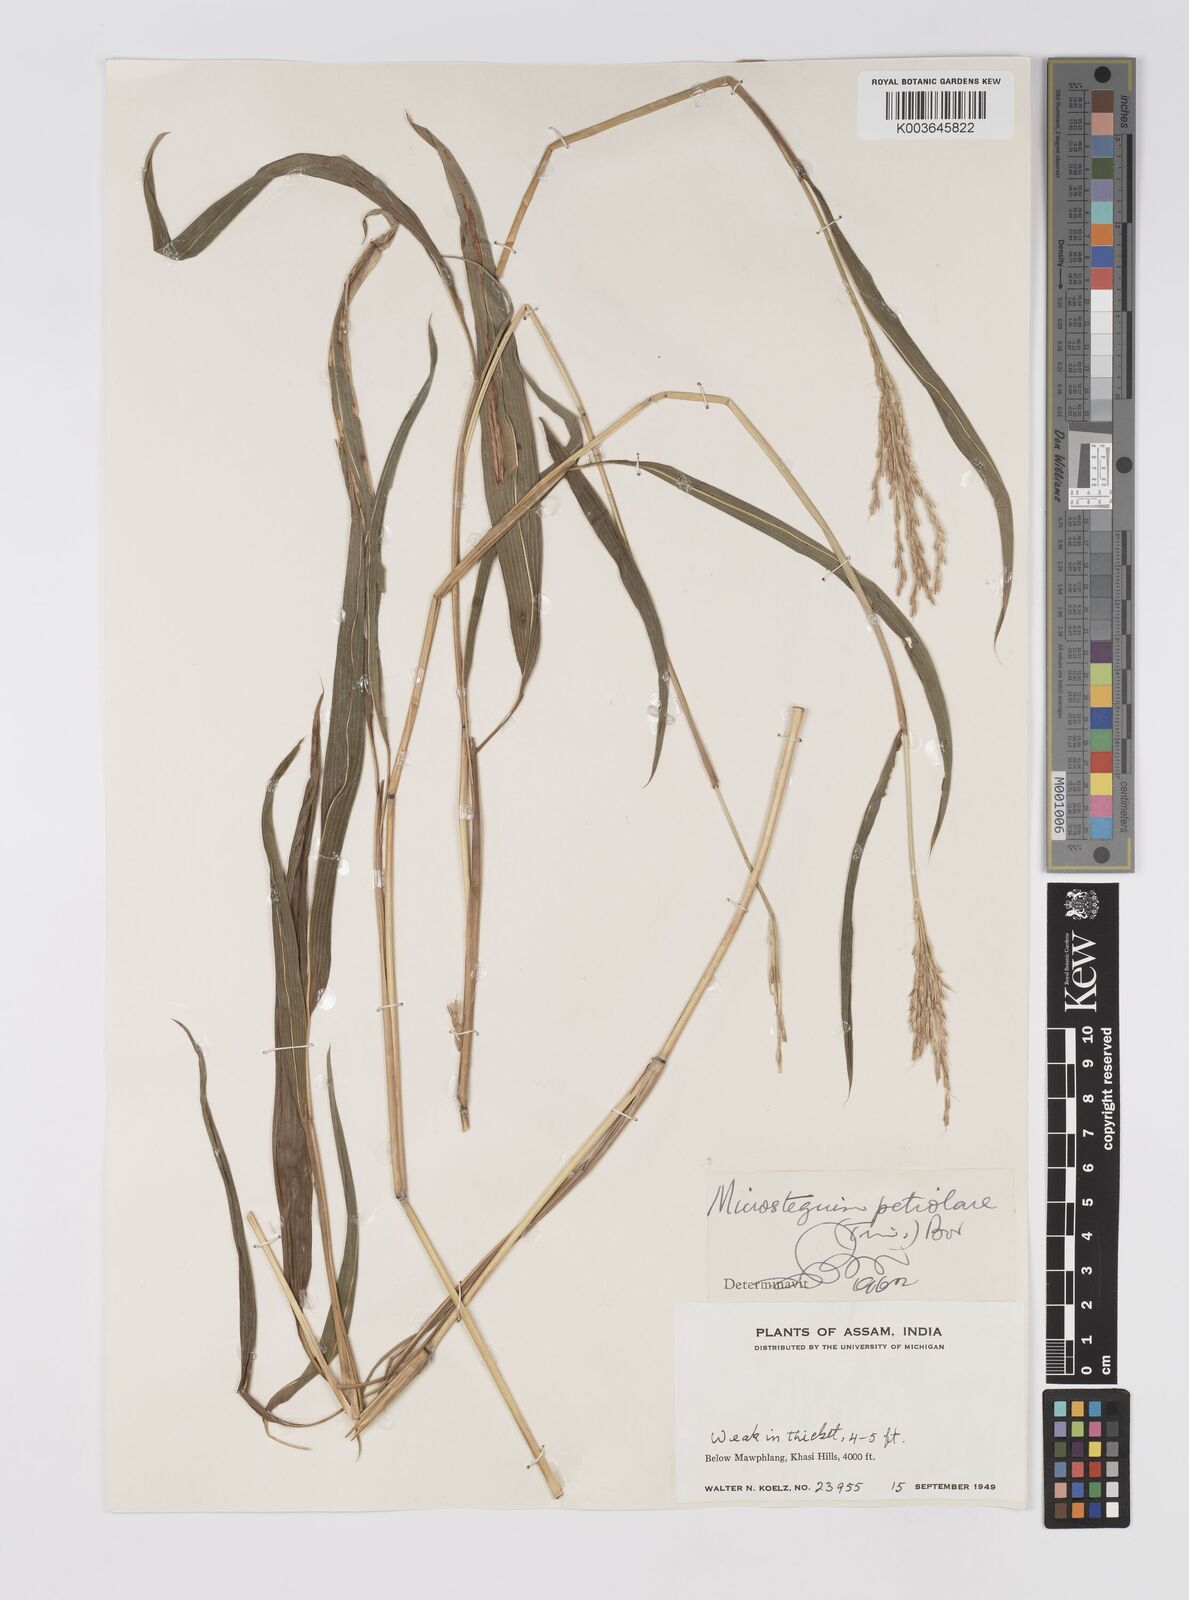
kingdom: Plantae
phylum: Tracheophyta
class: Liliopsida
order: Poales
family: Poaceae
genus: Microstegium
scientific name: Microstegium petiolare
